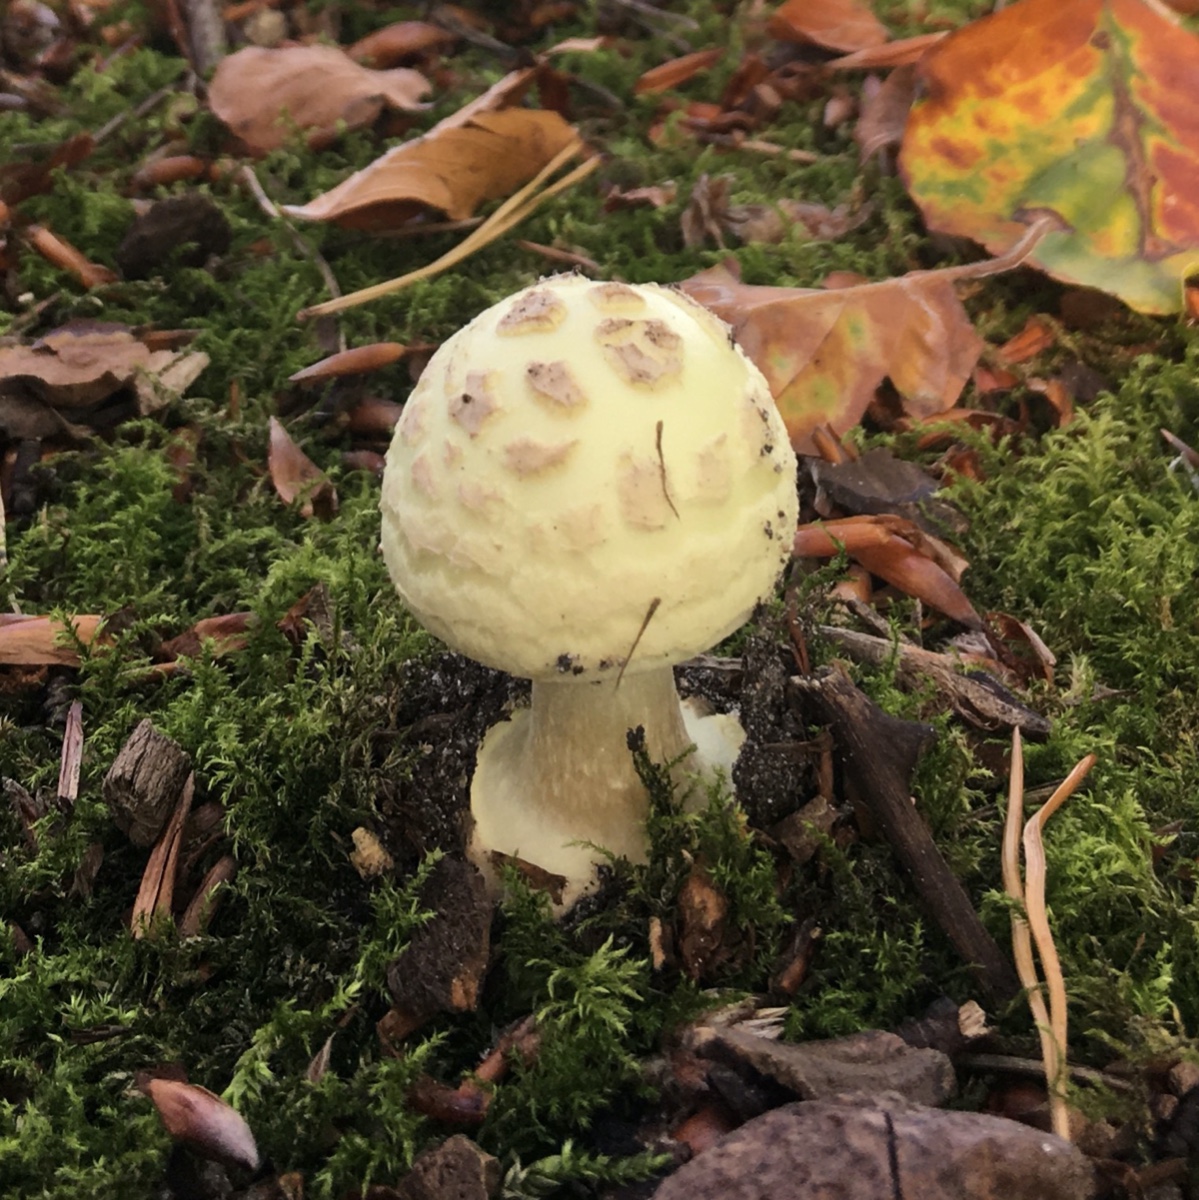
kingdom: Fungi
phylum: Basidiomycota
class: Agaricomycetes
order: Agaricales
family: Amanitaceae
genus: Amanita
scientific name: Amanita citrina
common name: kugleknoldet fluesvamp
